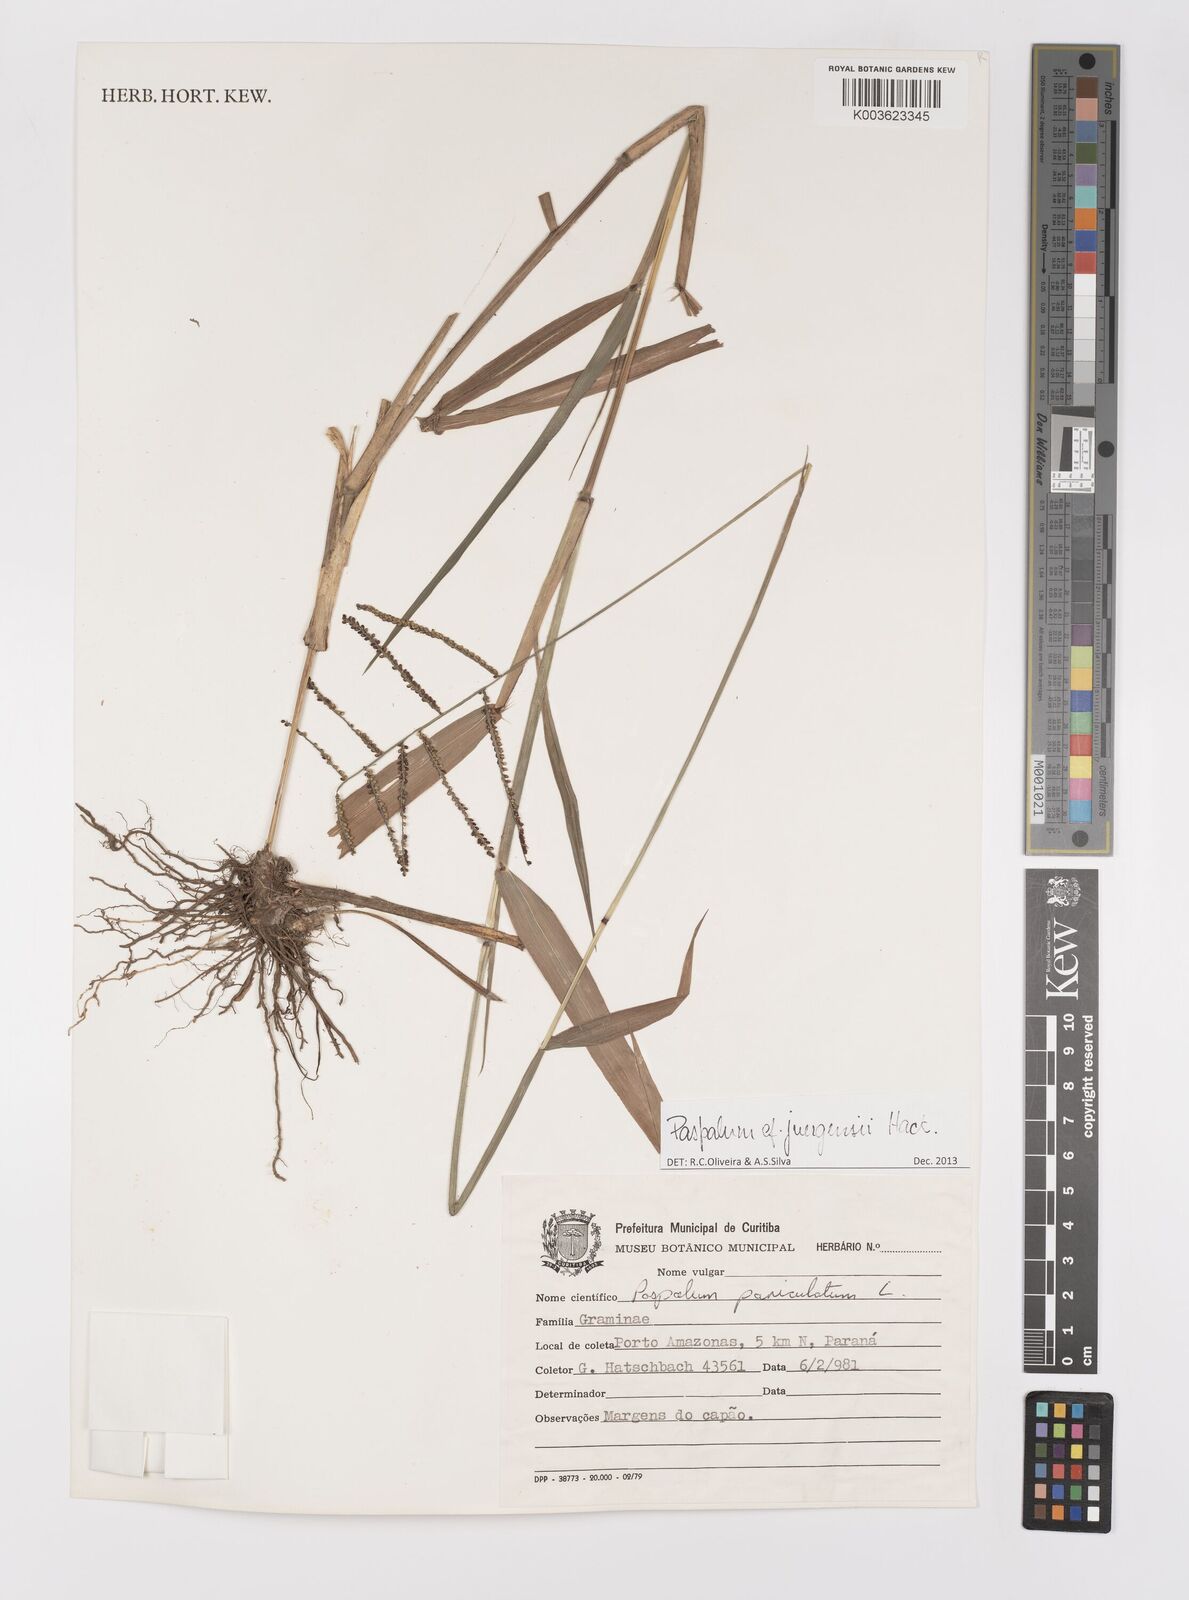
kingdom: Plantae
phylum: Tracheophyta
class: Liliopsida
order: Poales
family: Poaceae
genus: Paspalum
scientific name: Paspalum juergensii
